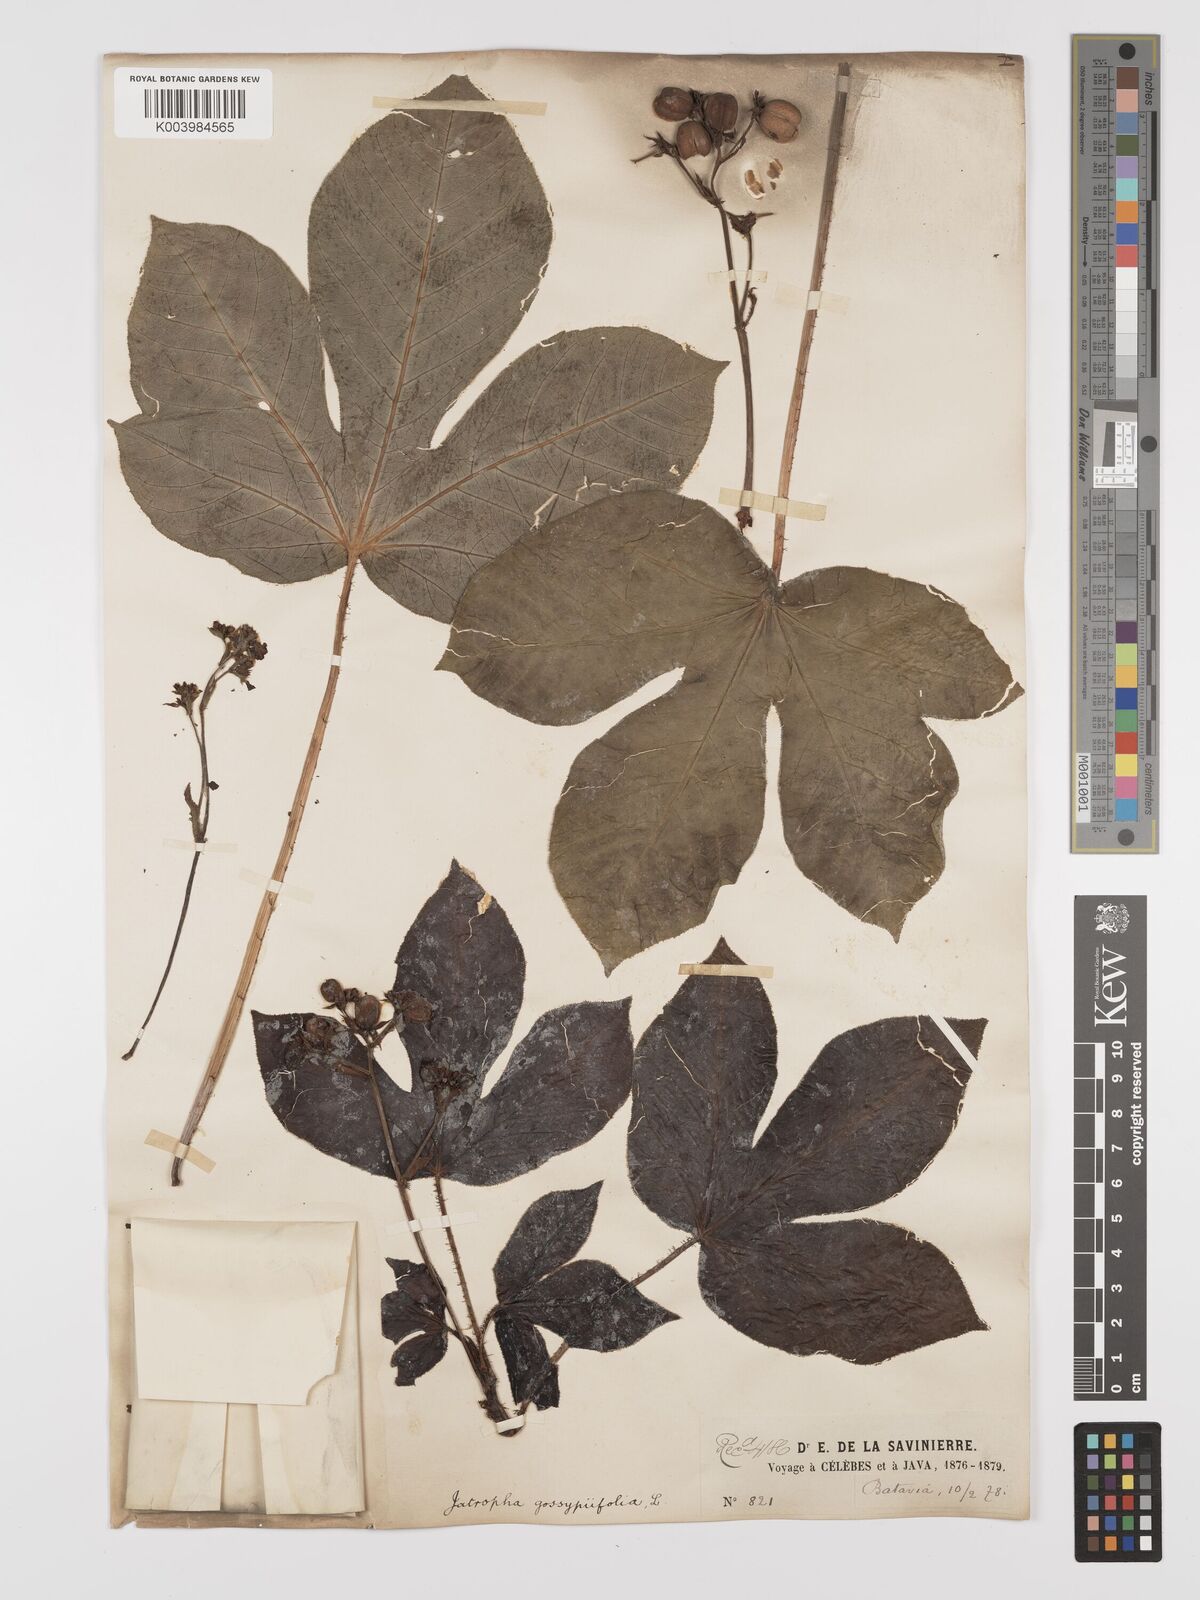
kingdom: Plantae
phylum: Tracheophyta
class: Magnoliopsida
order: Malpighiales
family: Euphorbiaceae
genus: Jatropha
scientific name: Jatropha gossypiifolia
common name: Bellyache bush
